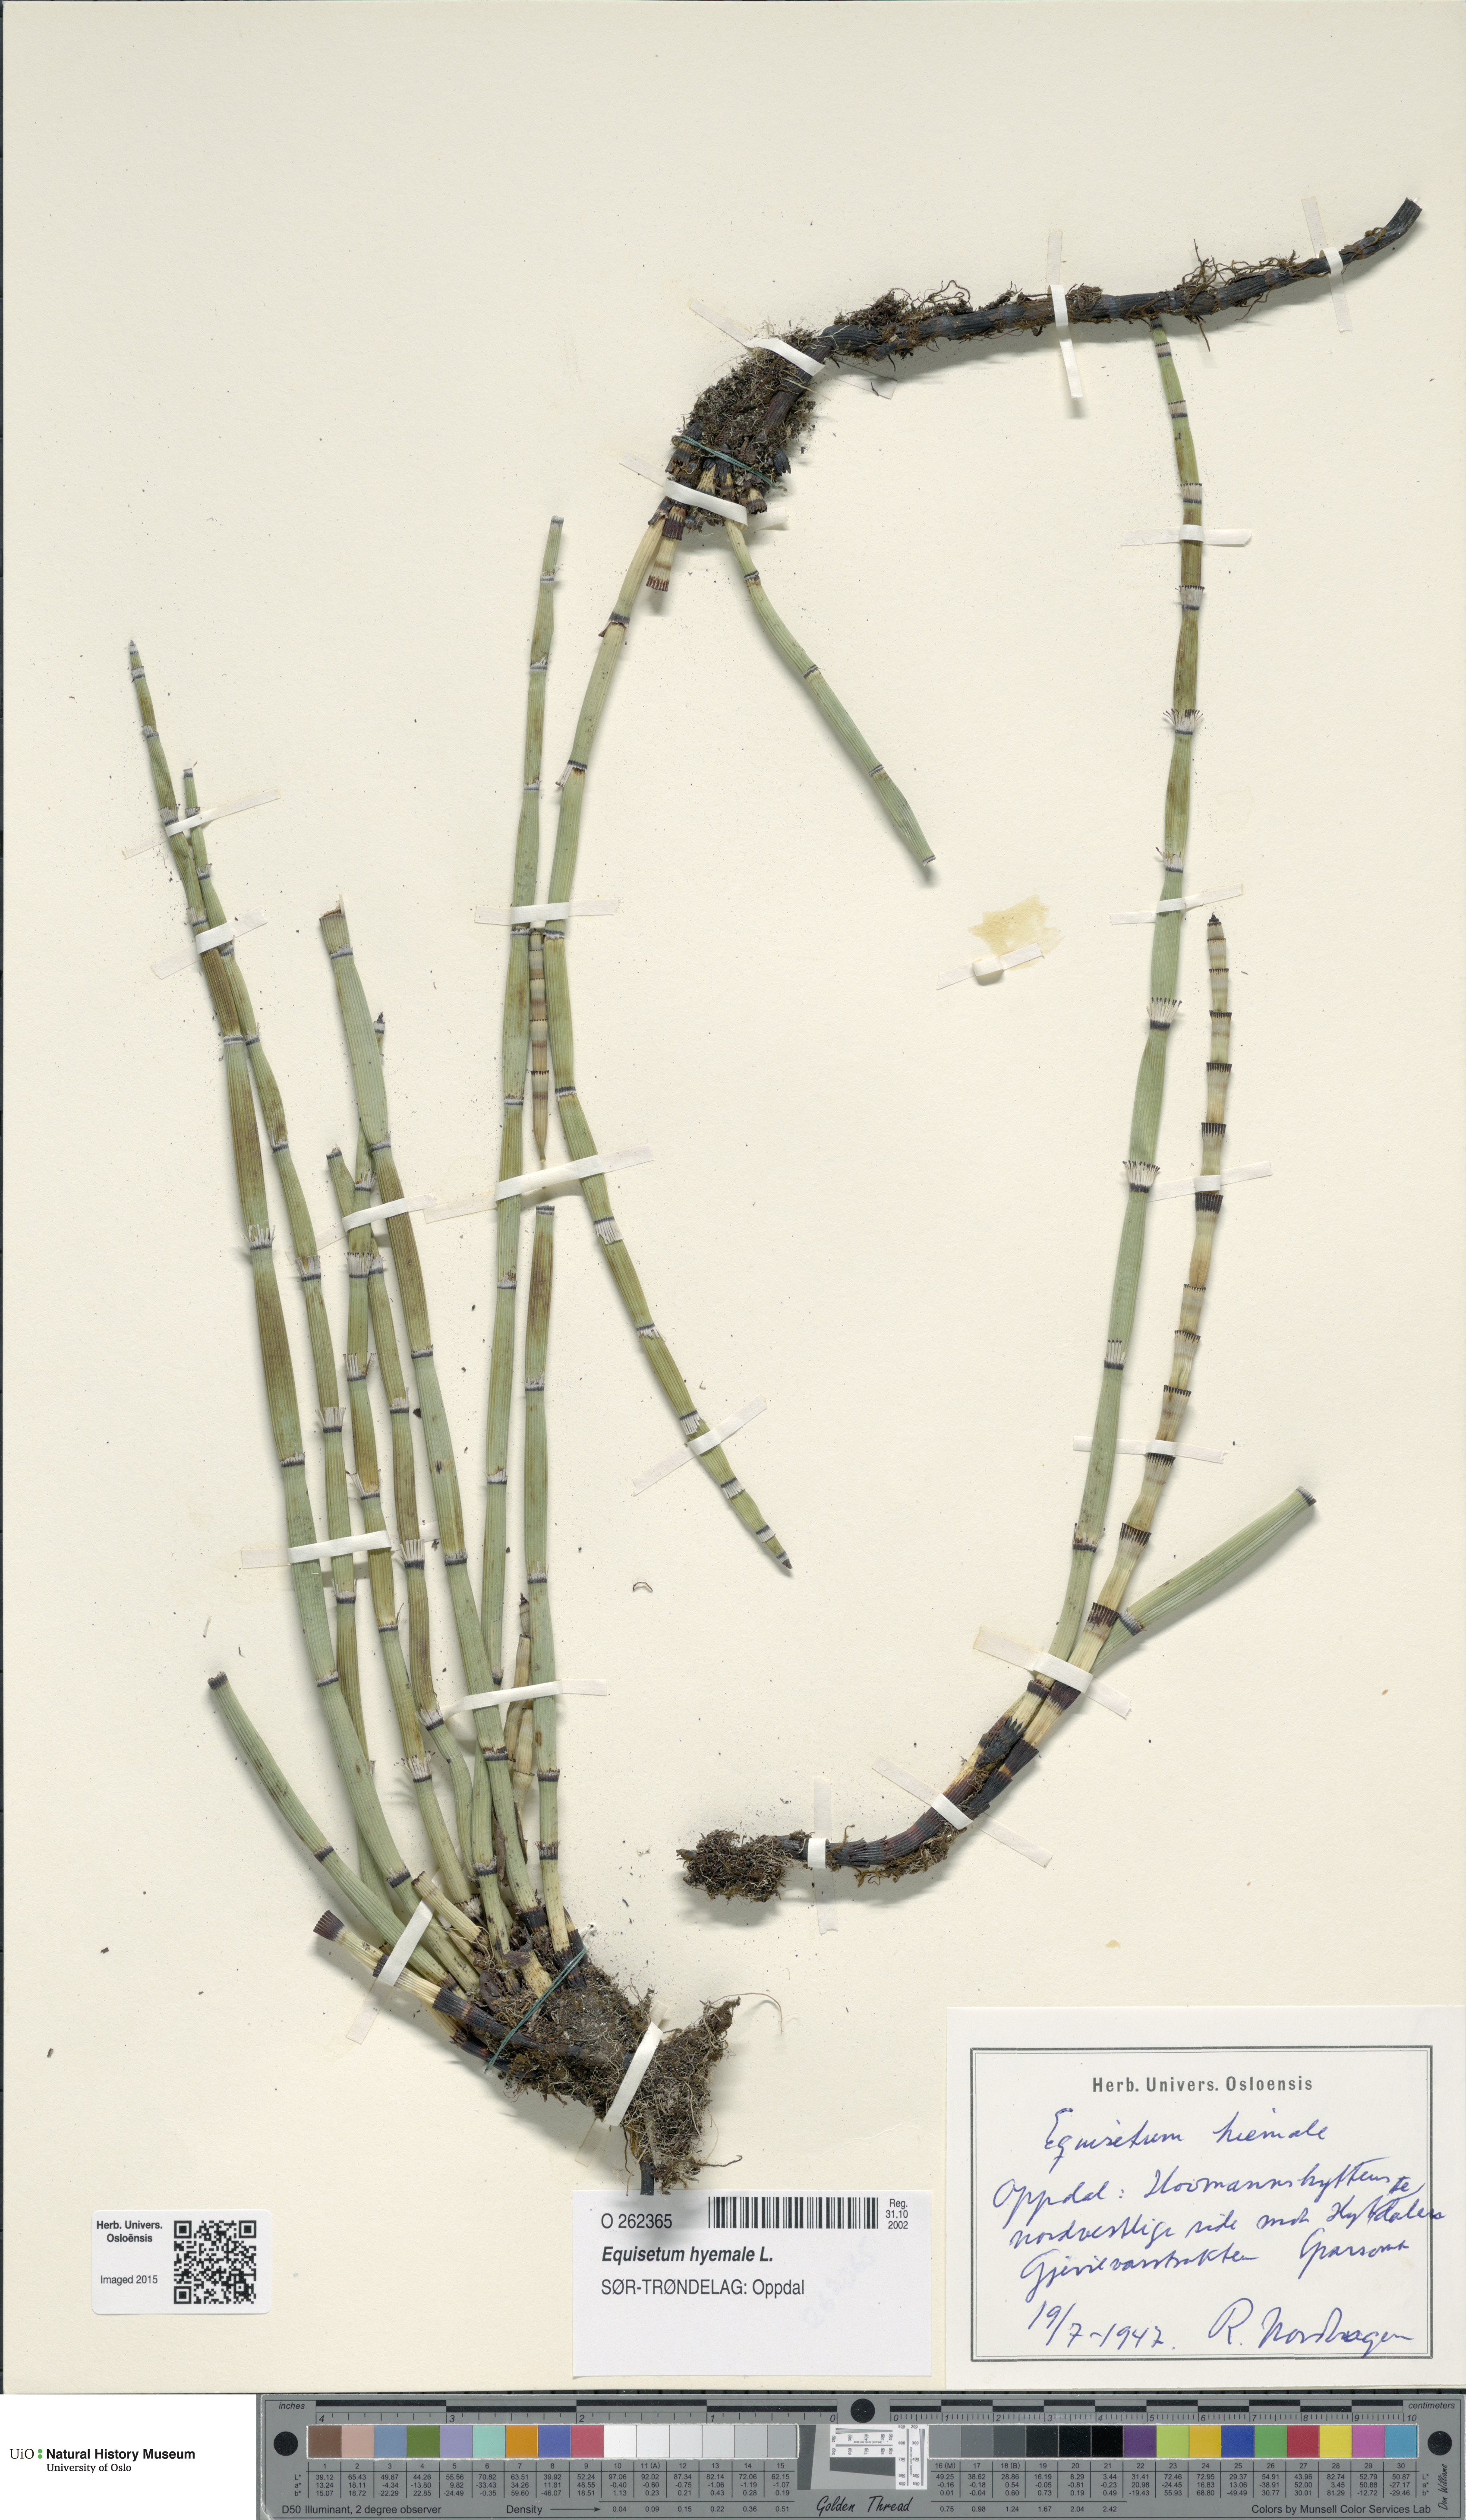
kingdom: Plantae
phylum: Tracheophyta
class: Polypodiopsida
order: Equisetales
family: Equisetaceae
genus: Equisetum
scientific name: Equisetum hyemale
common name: Rough horsetail
